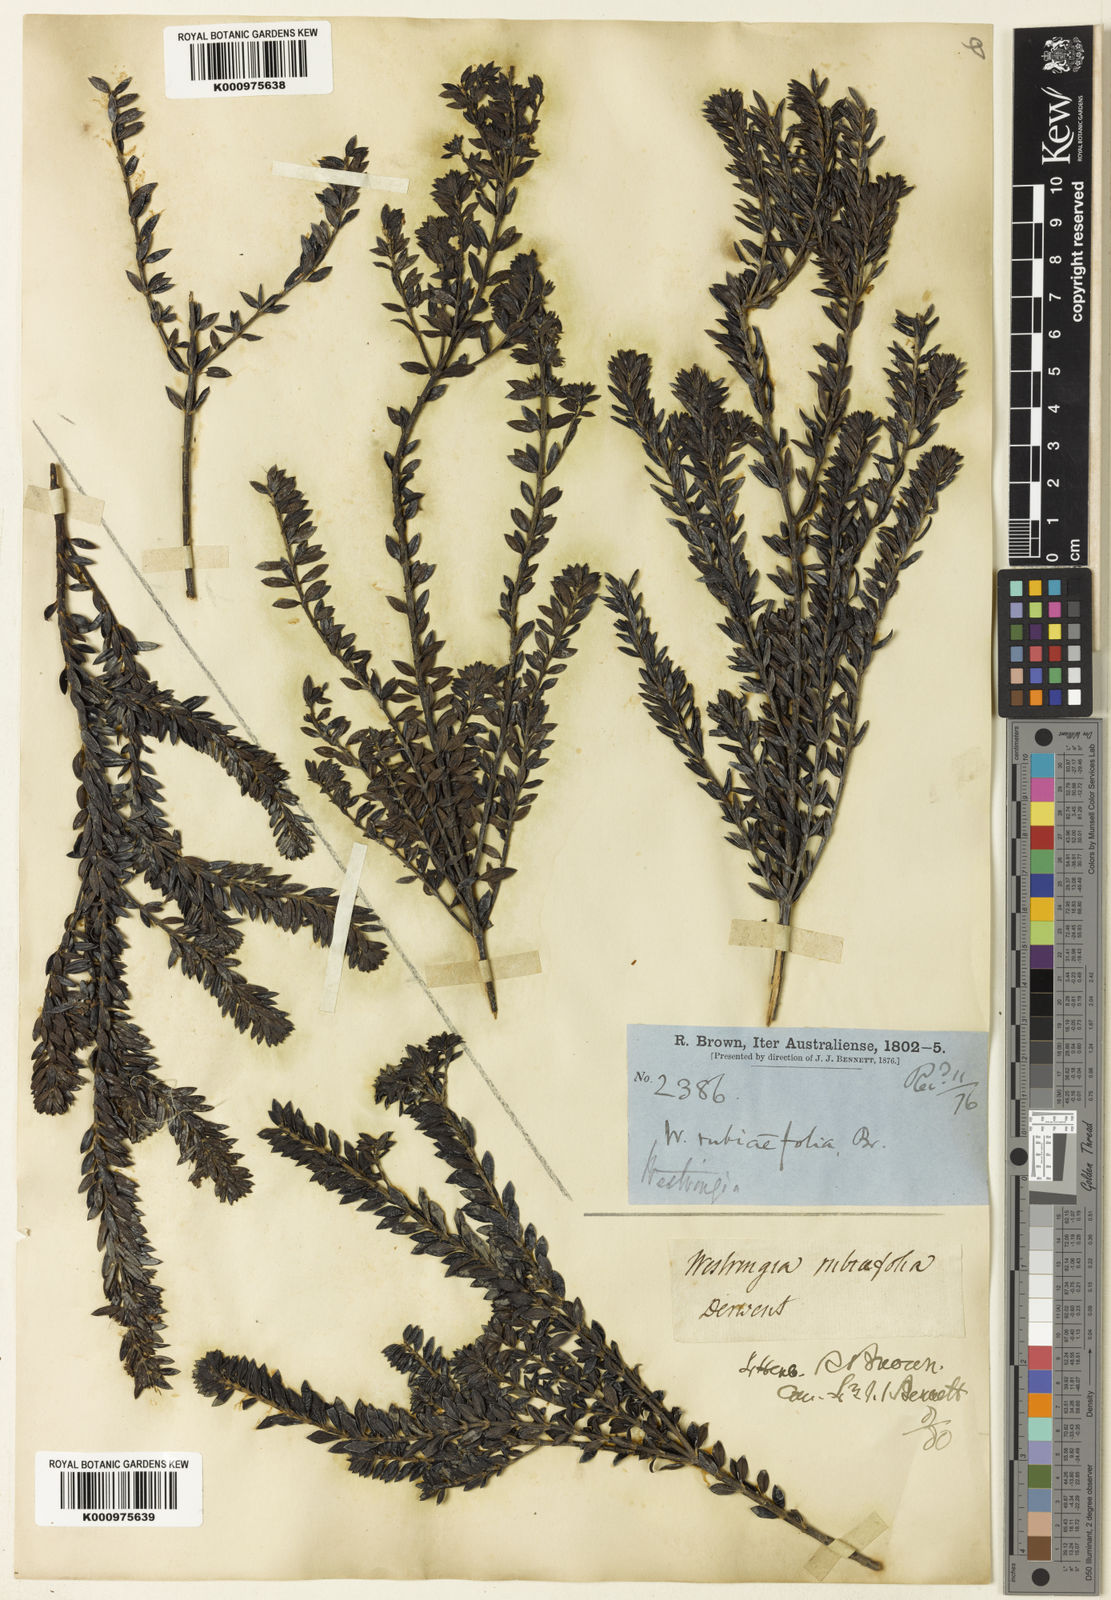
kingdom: Plantae
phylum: Tracheophyta
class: Magnoliopsida
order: Lamiales
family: Lamiaceae
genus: Westringia
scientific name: Westringia rubiifolia
